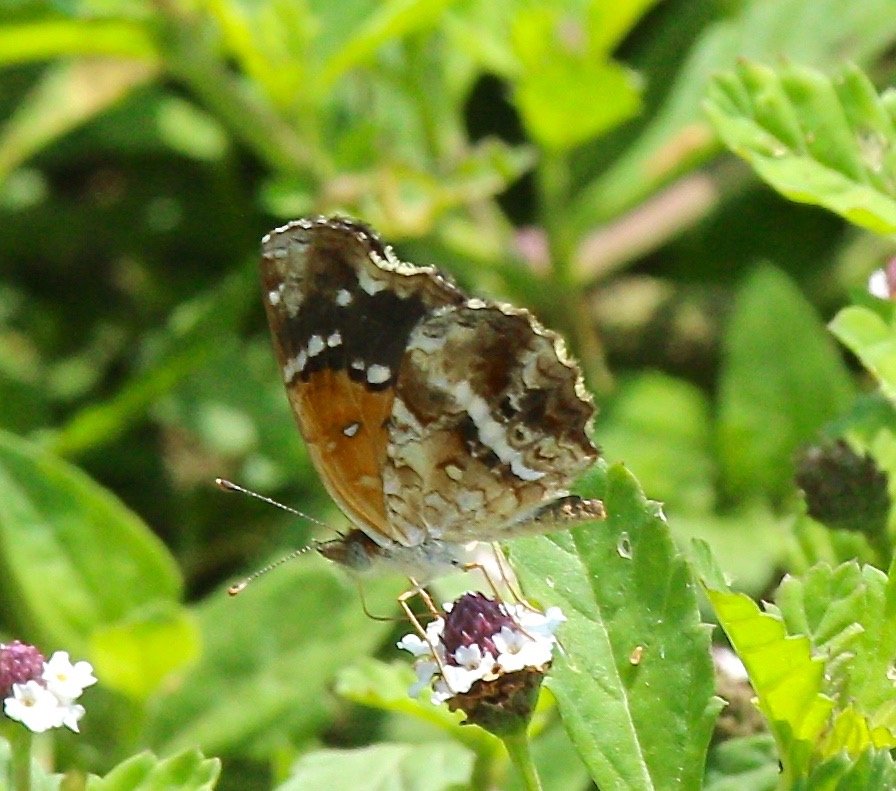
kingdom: Animalia
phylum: Arthropoda
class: Insecta
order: Lepidoptera
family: Nymphalidae
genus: Anthanassa
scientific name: Anthanassa texana
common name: Texan Crescent
